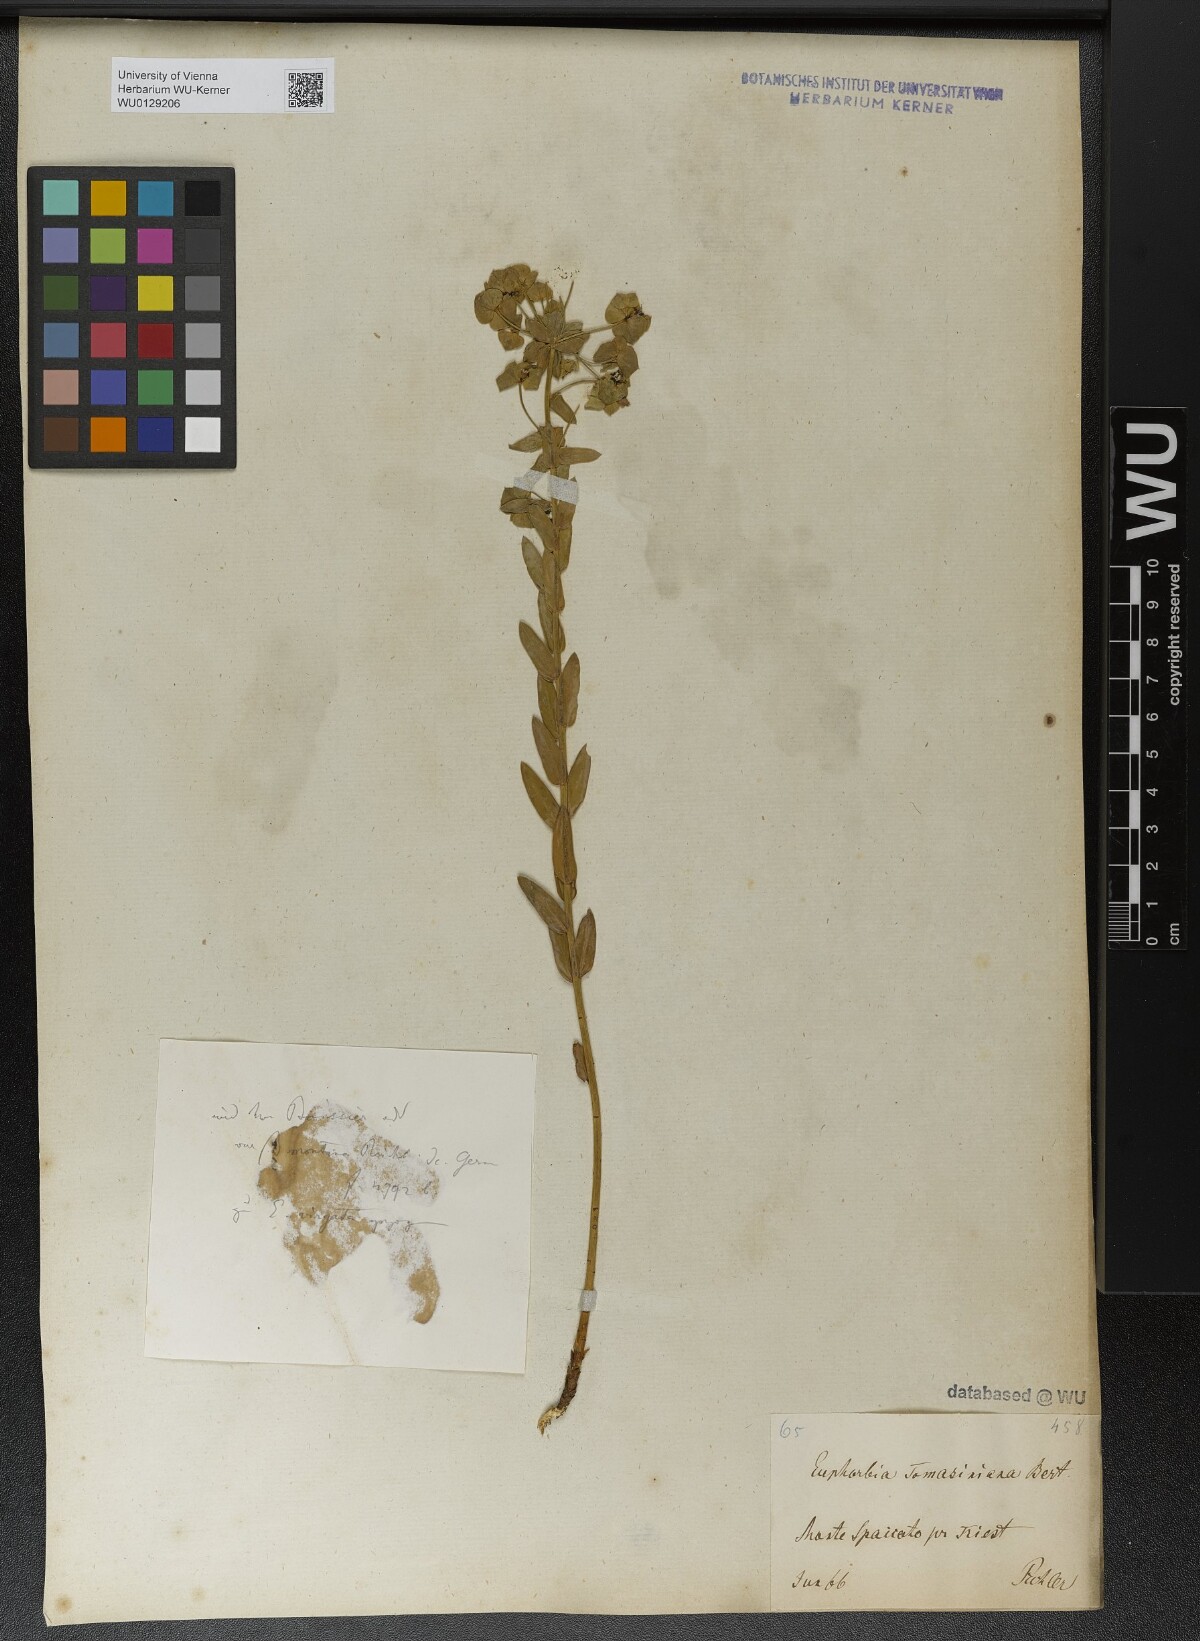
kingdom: Plantae
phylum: Tracheophyta
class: Magnoliopsida
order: Malpighiales
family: Euphorbiaceae
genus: Euphorbia
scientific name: Euphorbia tommasiniana
